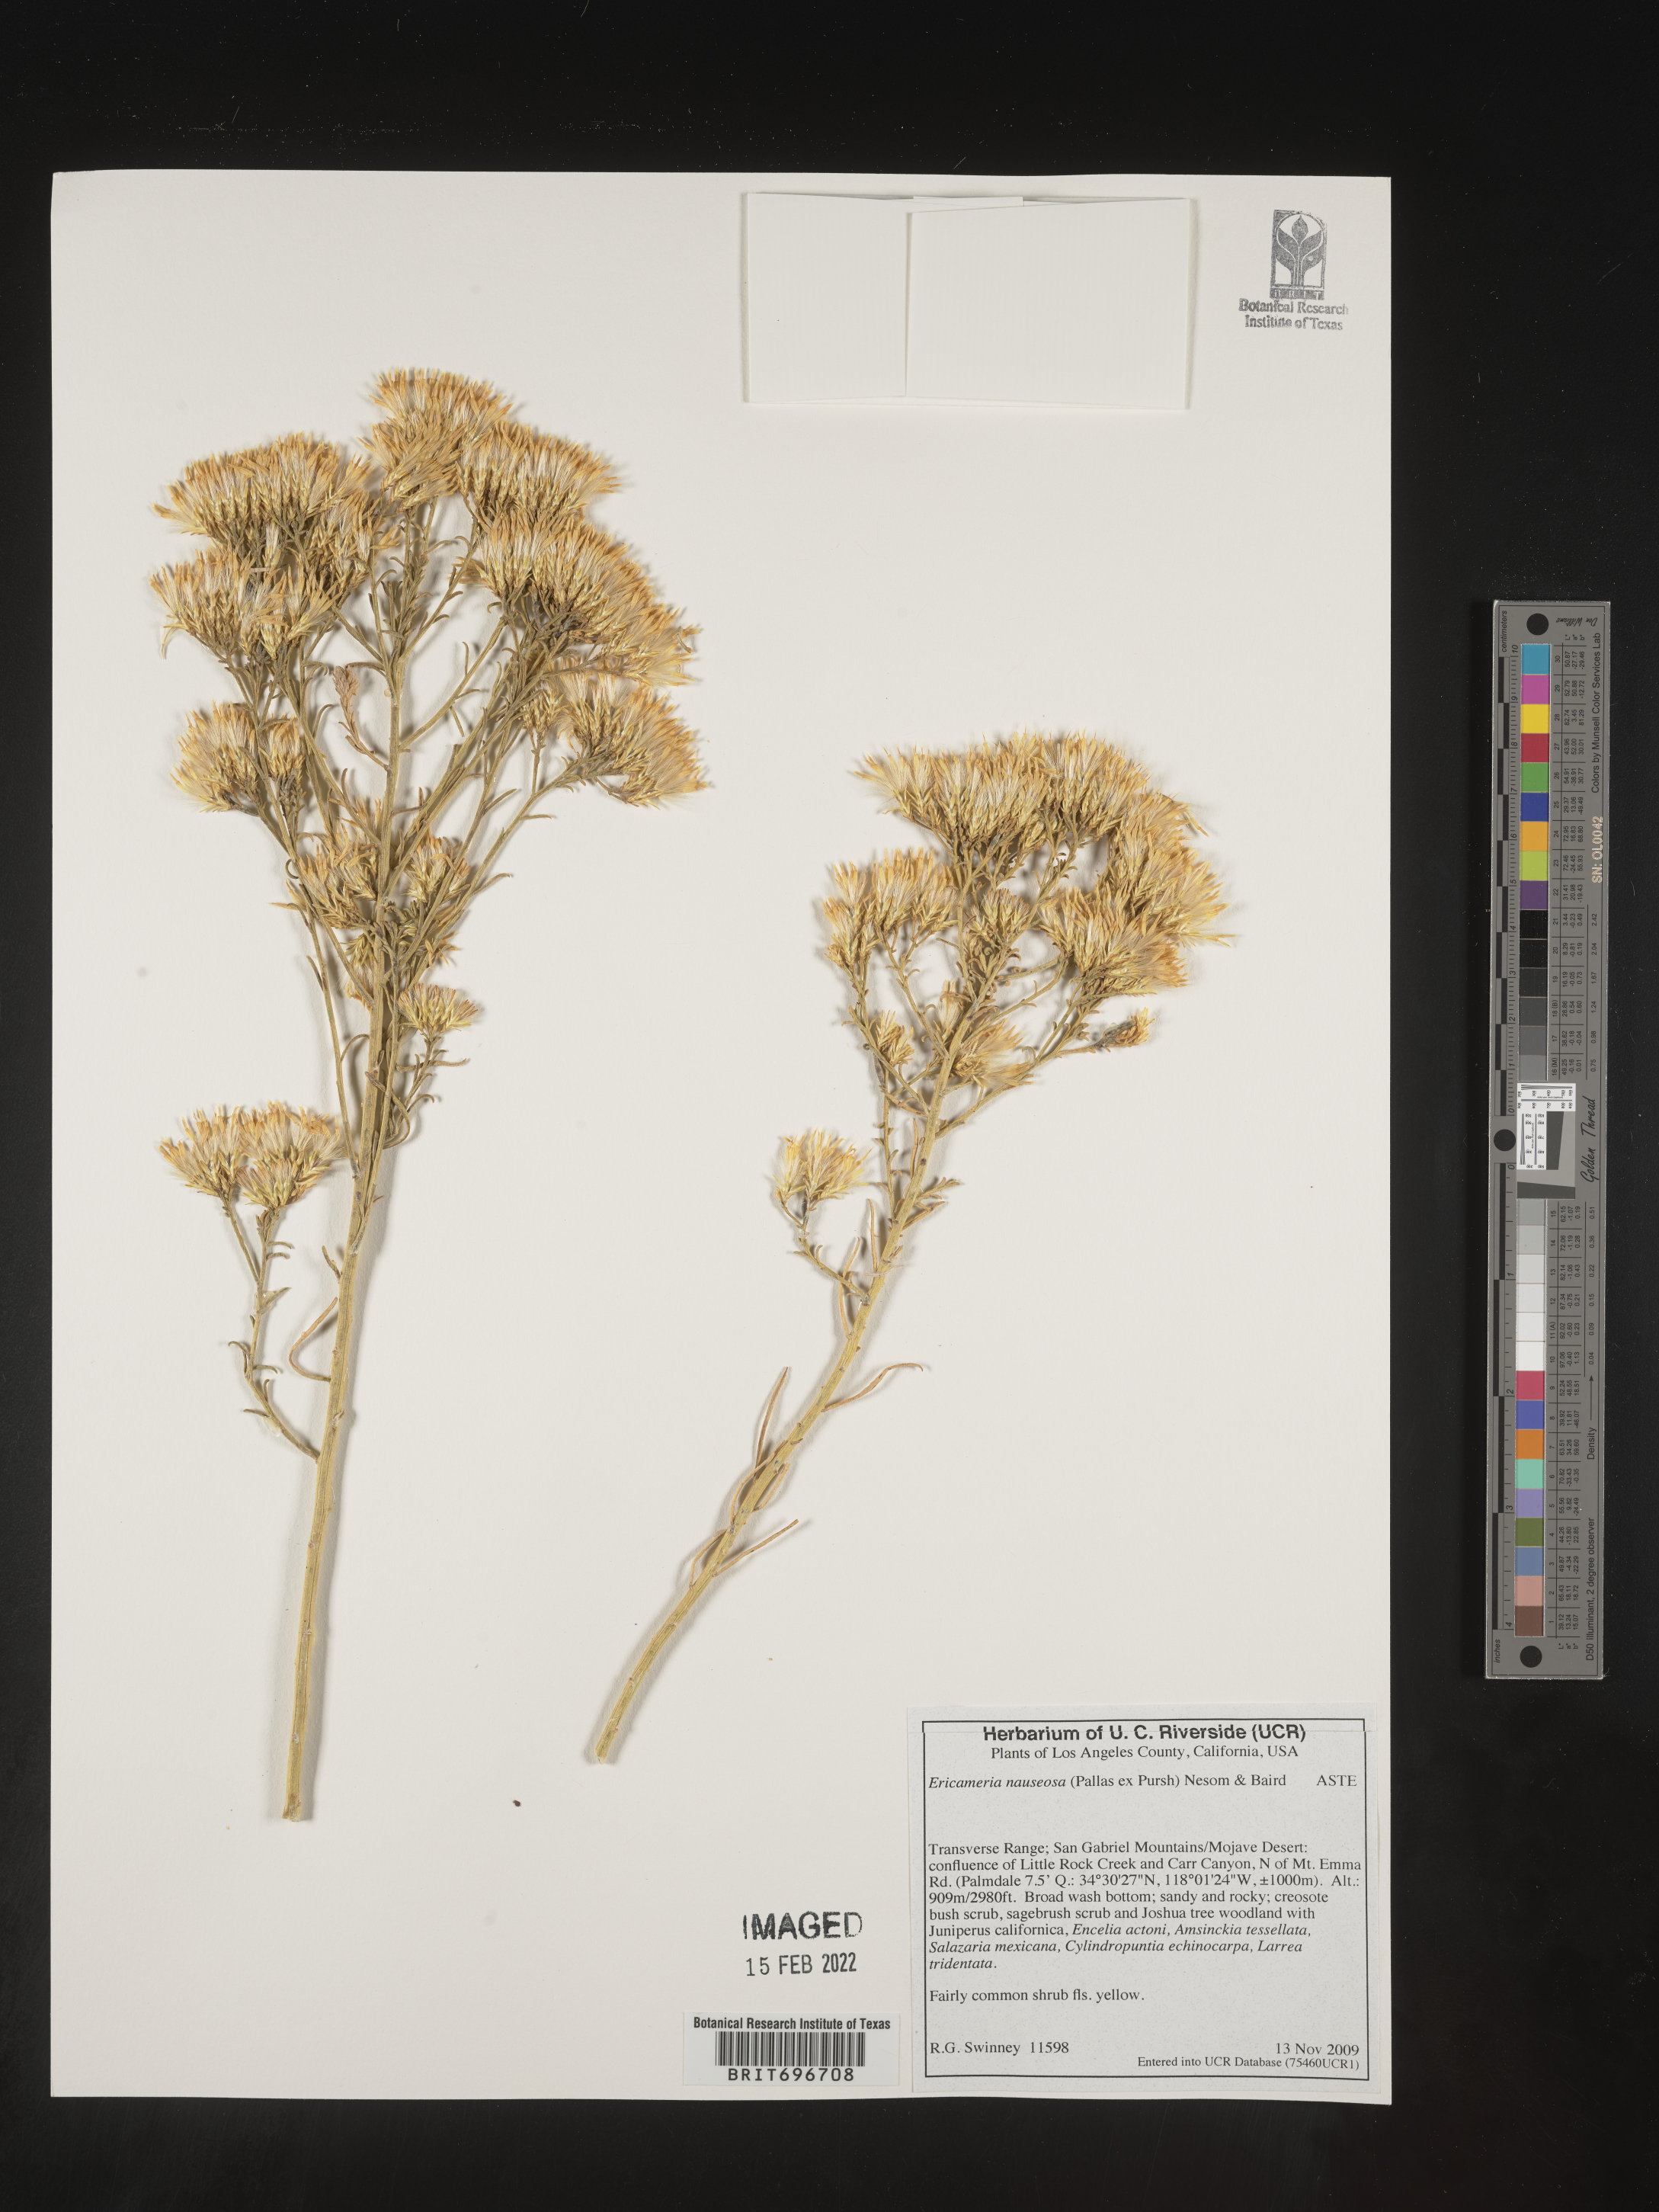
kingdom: Plantae
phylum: Tracheophyta
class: Magnoliopsida
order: Asterales
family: Asteraceae
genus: Ericameria
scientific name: Ericameria nauseosa
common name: Rubber rabbitbrush
